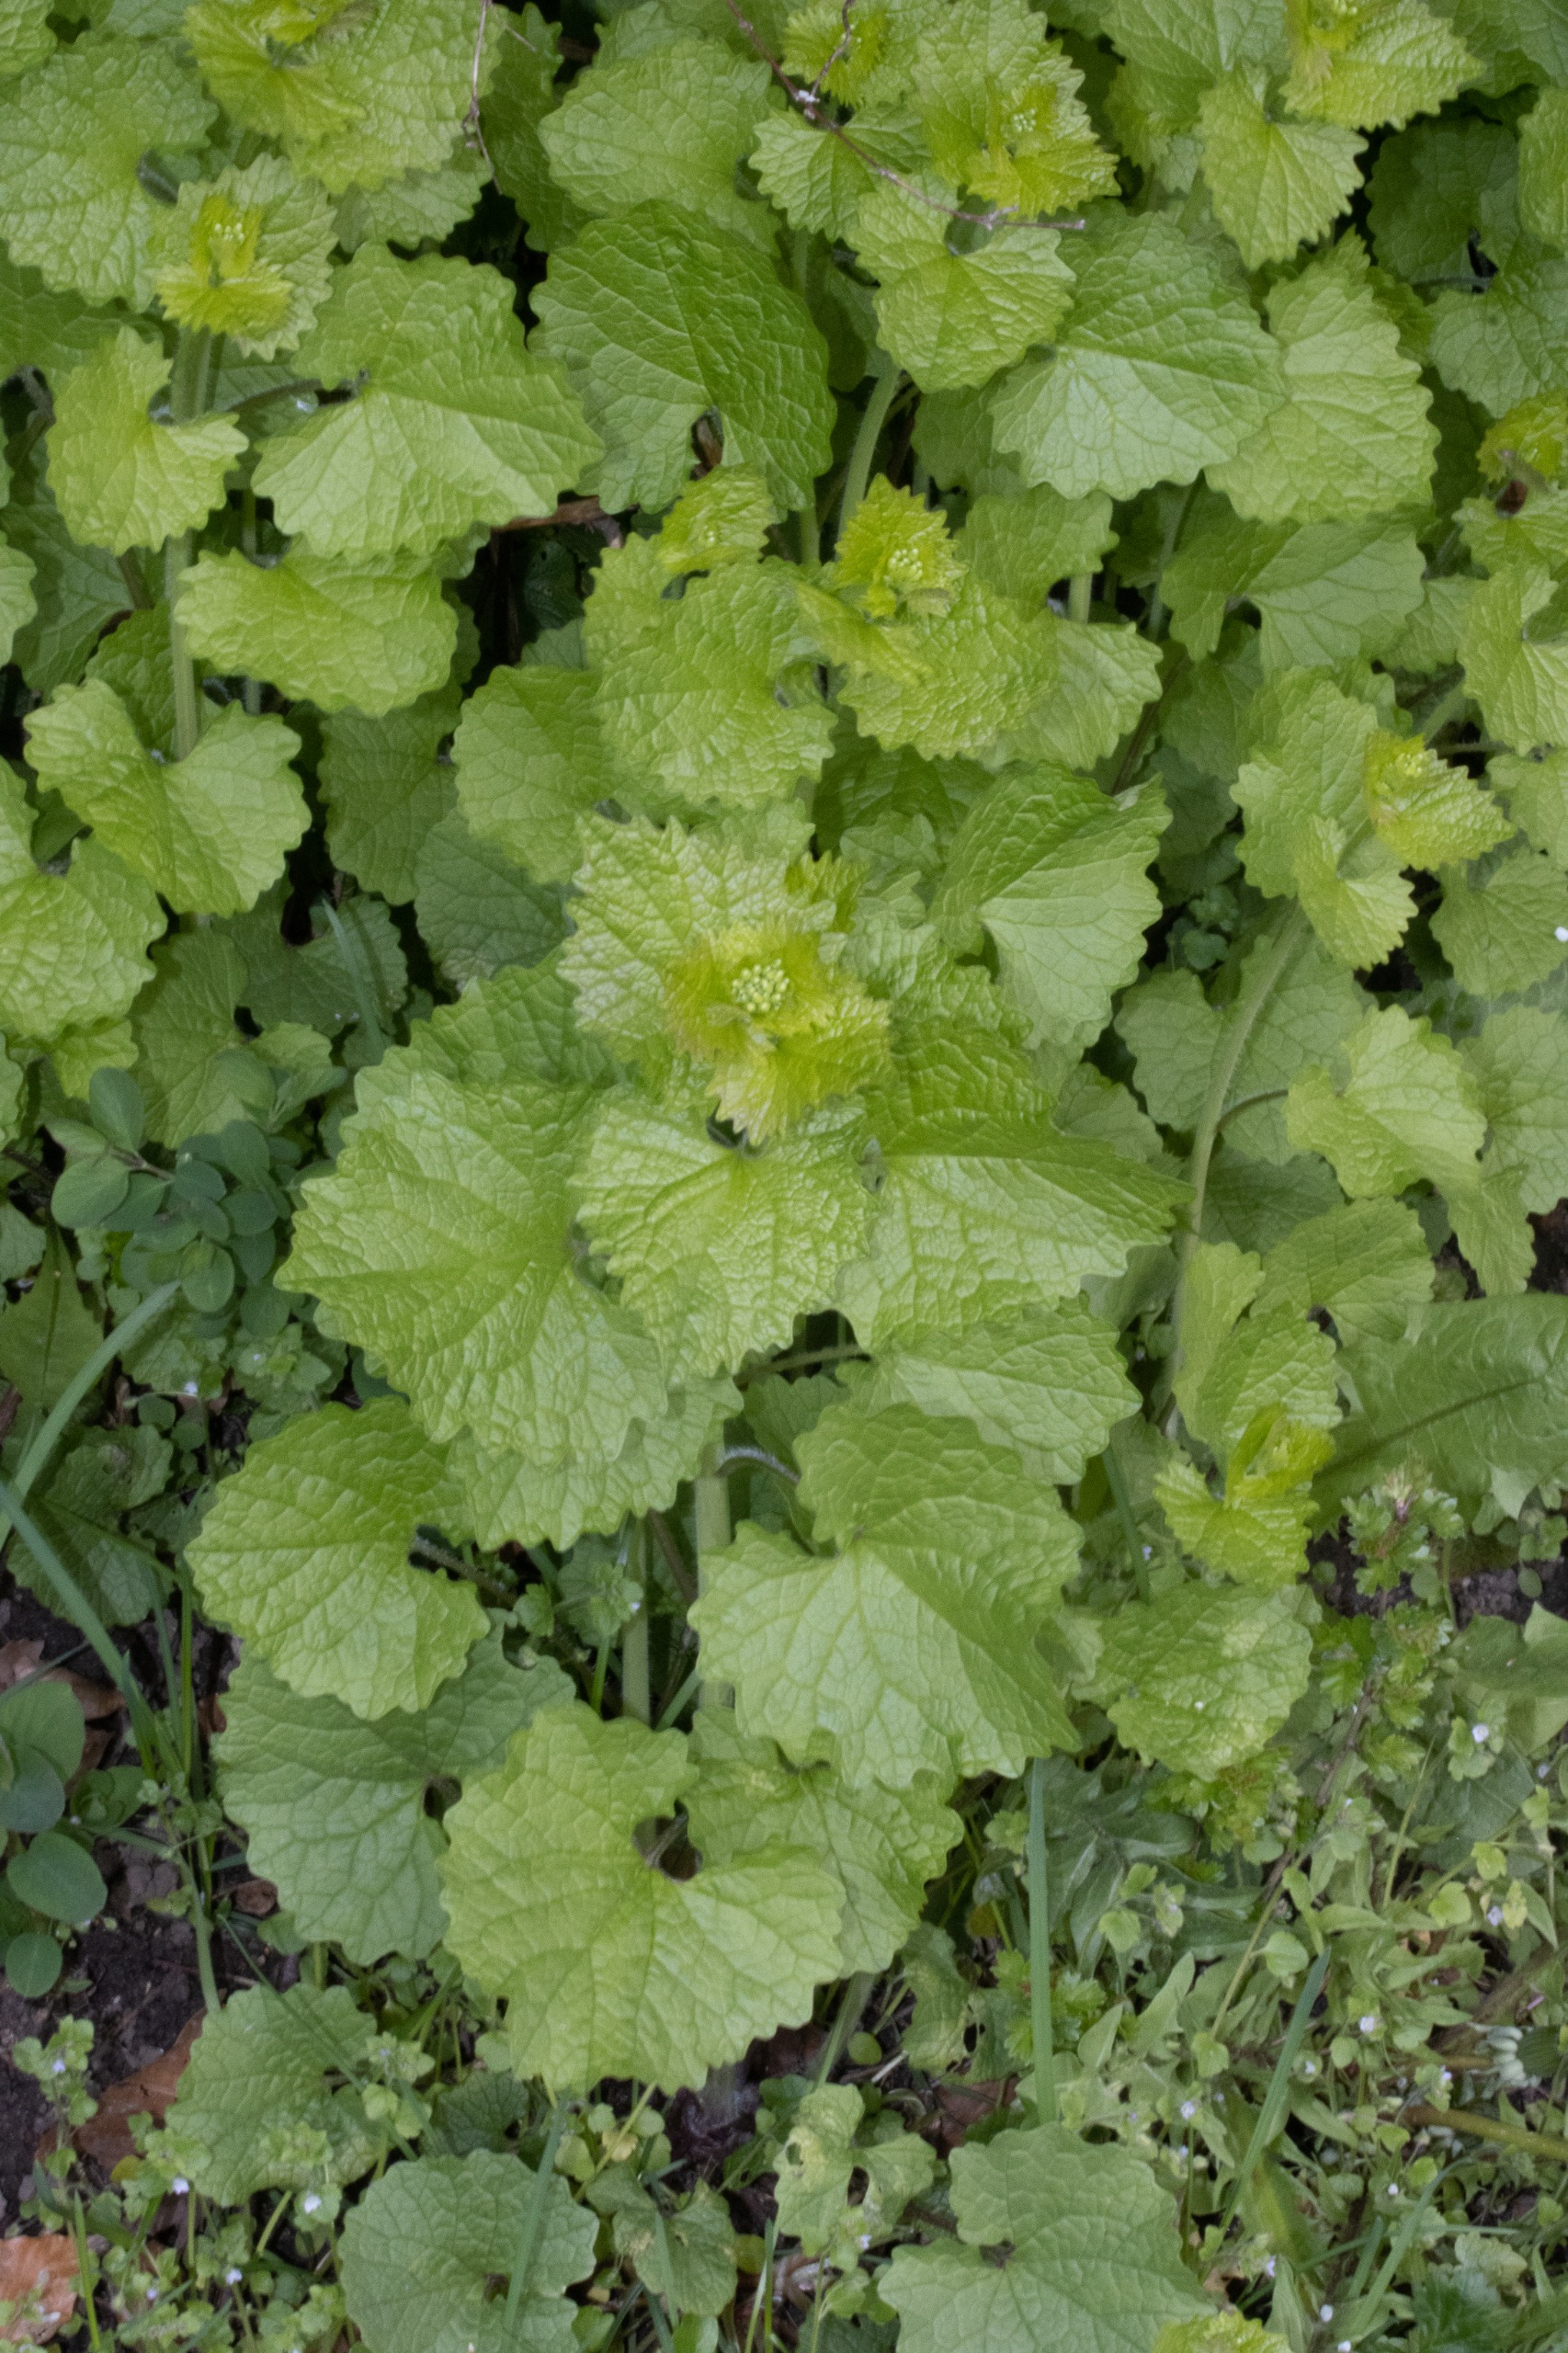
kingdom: Plantae
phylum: Tracheophyta
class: Magnoliopsida
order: Brassicales
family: Brassicaceae
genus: Alliaria
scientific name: Alliaria petiolata
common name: Løgkarse
